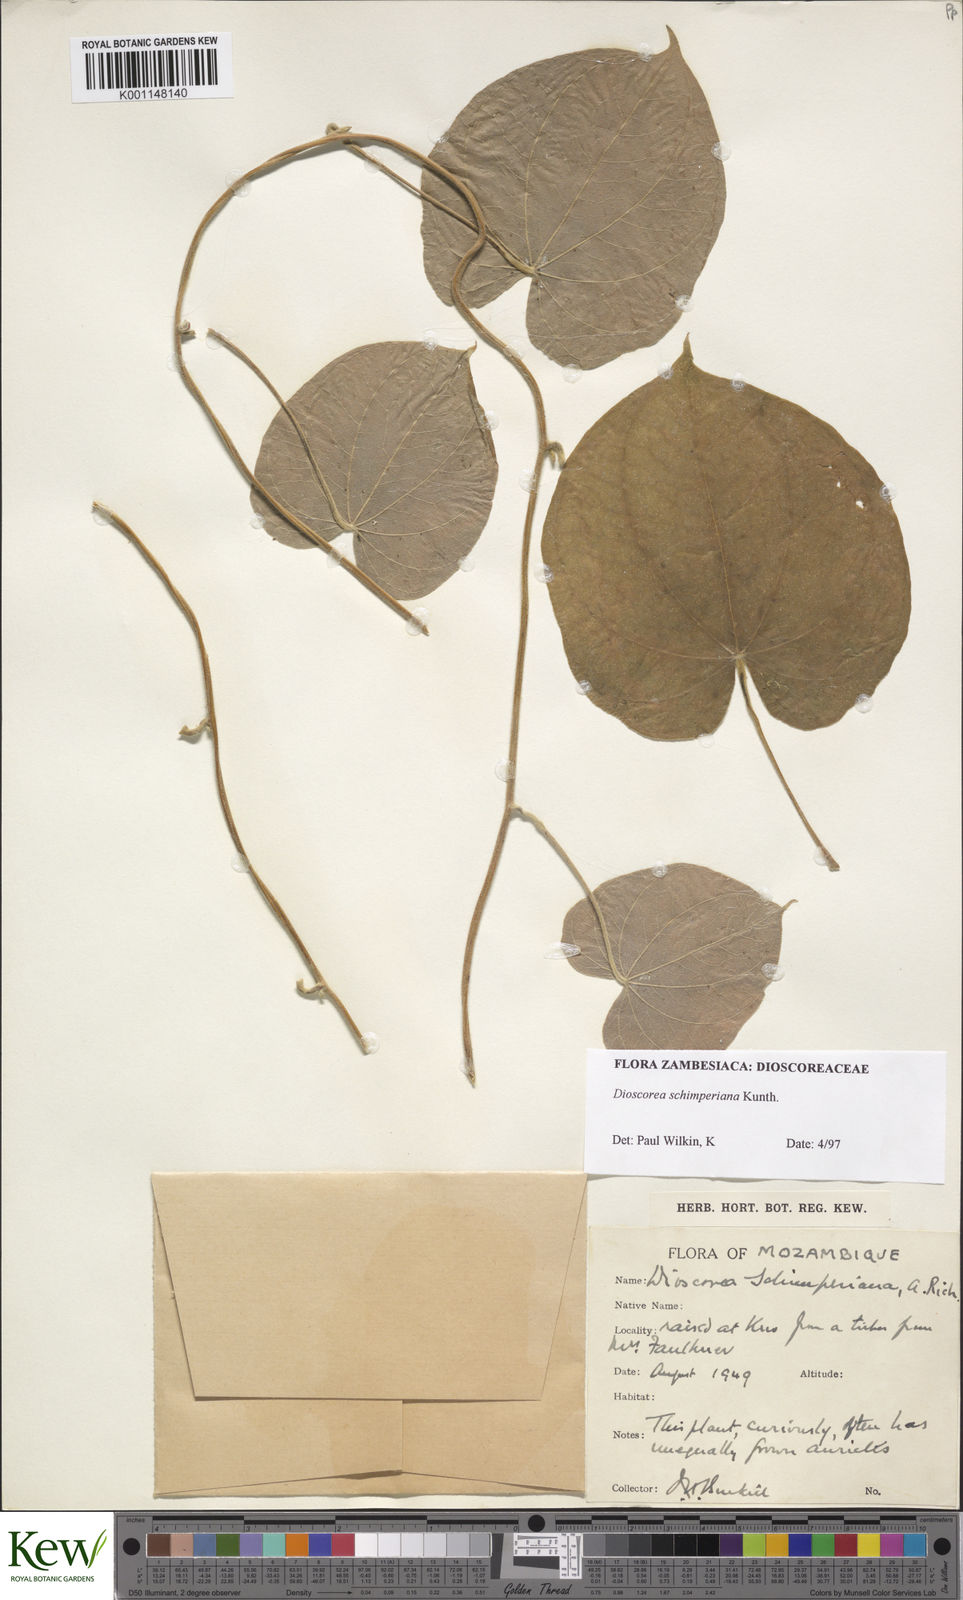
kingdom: Plantae
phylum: Tracheophyta
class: Liliopsida
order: Dioscoreales
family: Dioscoreaceae
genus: Dioscorea
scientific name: Dioscorea schimperiana
